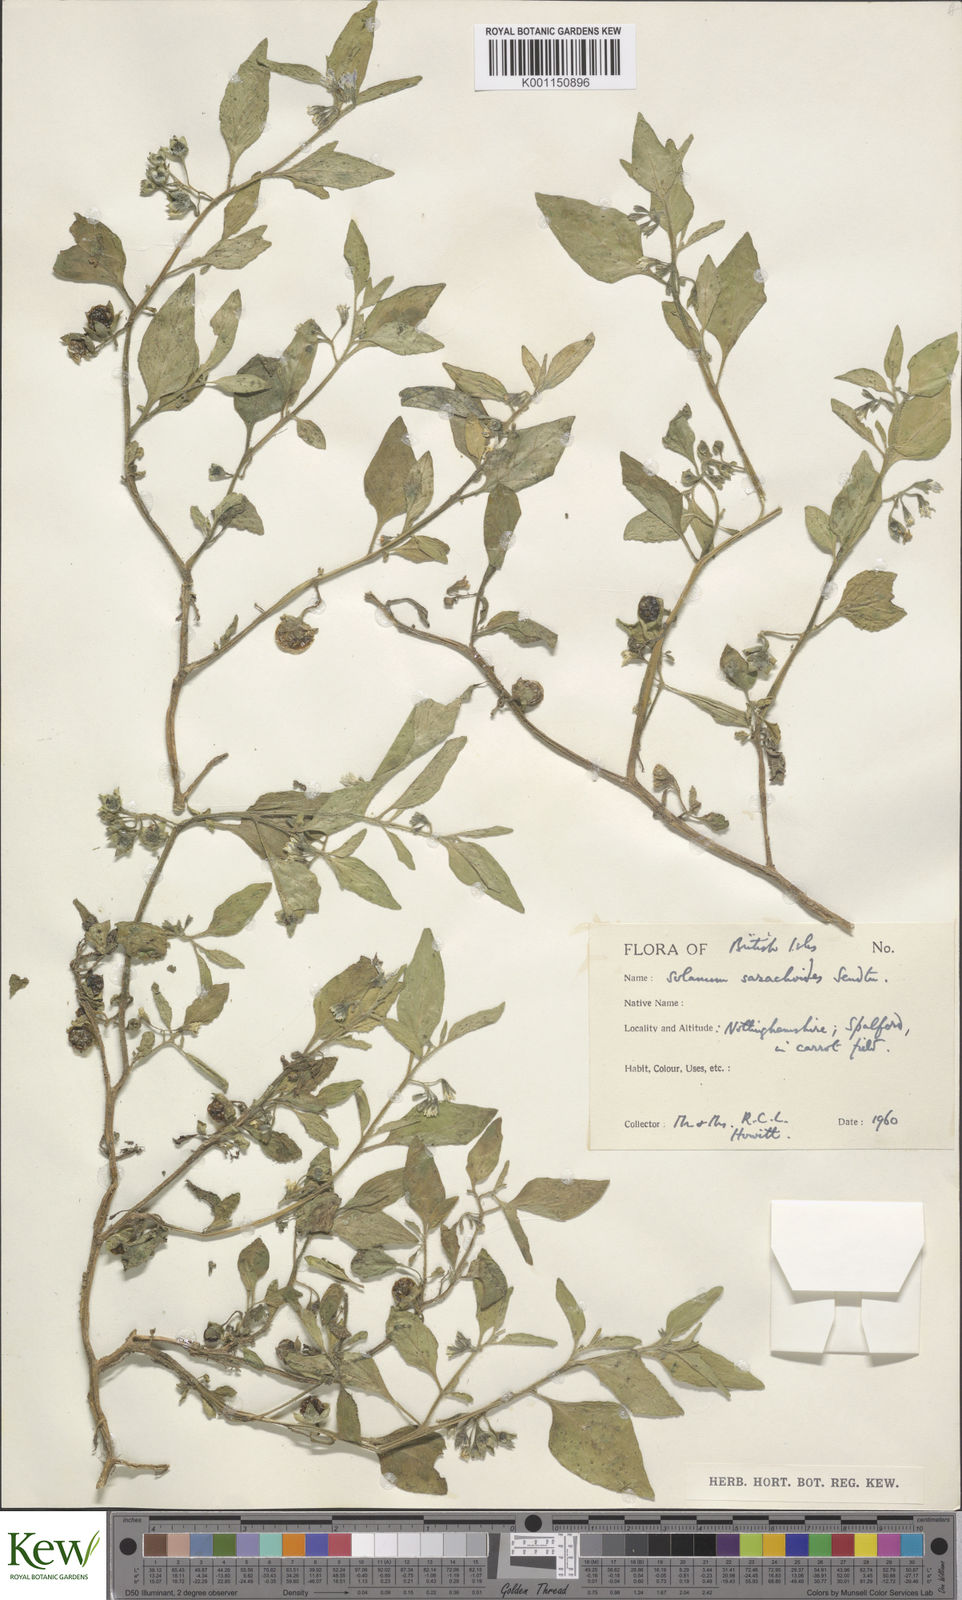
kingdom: Plantae
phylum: Tracheophyta
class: Magnoliopsida
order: Solanales
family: Solanaceae
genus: Solanum
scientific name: Solanum nitidibaccatum
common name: Hairy nightshade
